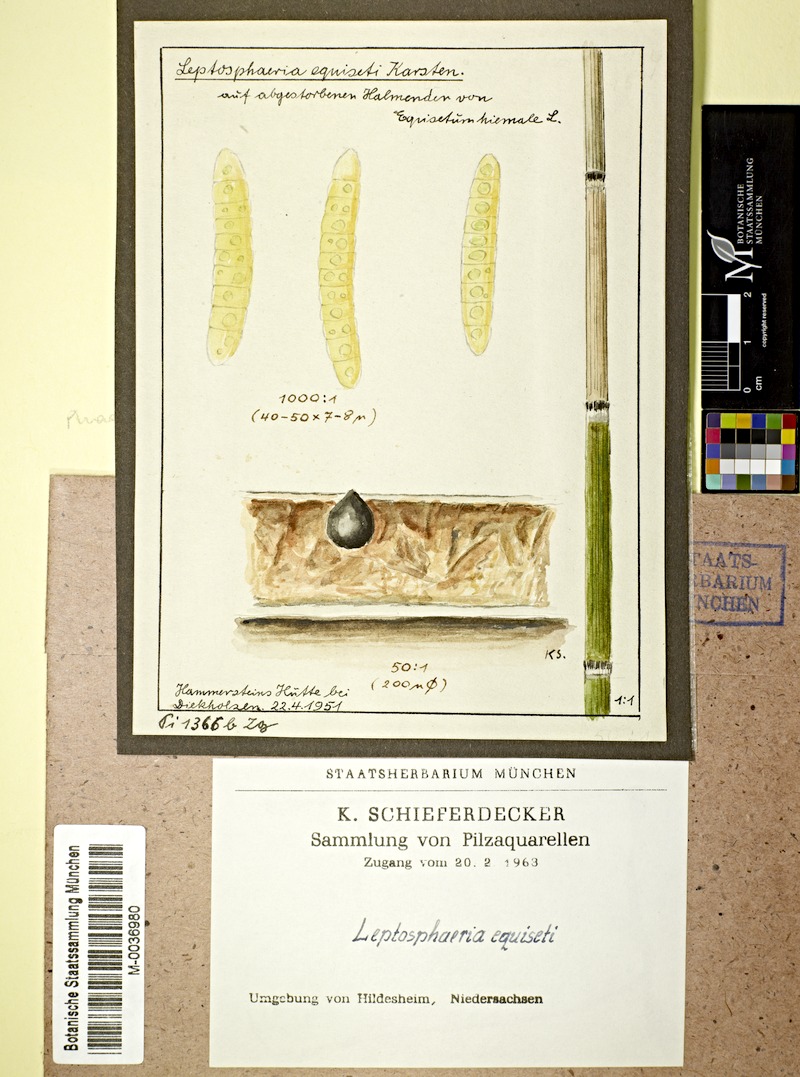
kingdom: Fungi
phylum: Ascomycota
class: Dothideomycetes
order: Pleosporales
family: Phaeosphaeriaceae
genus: Phaeosphaeria
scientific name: Phaeosphaeria equiseti
